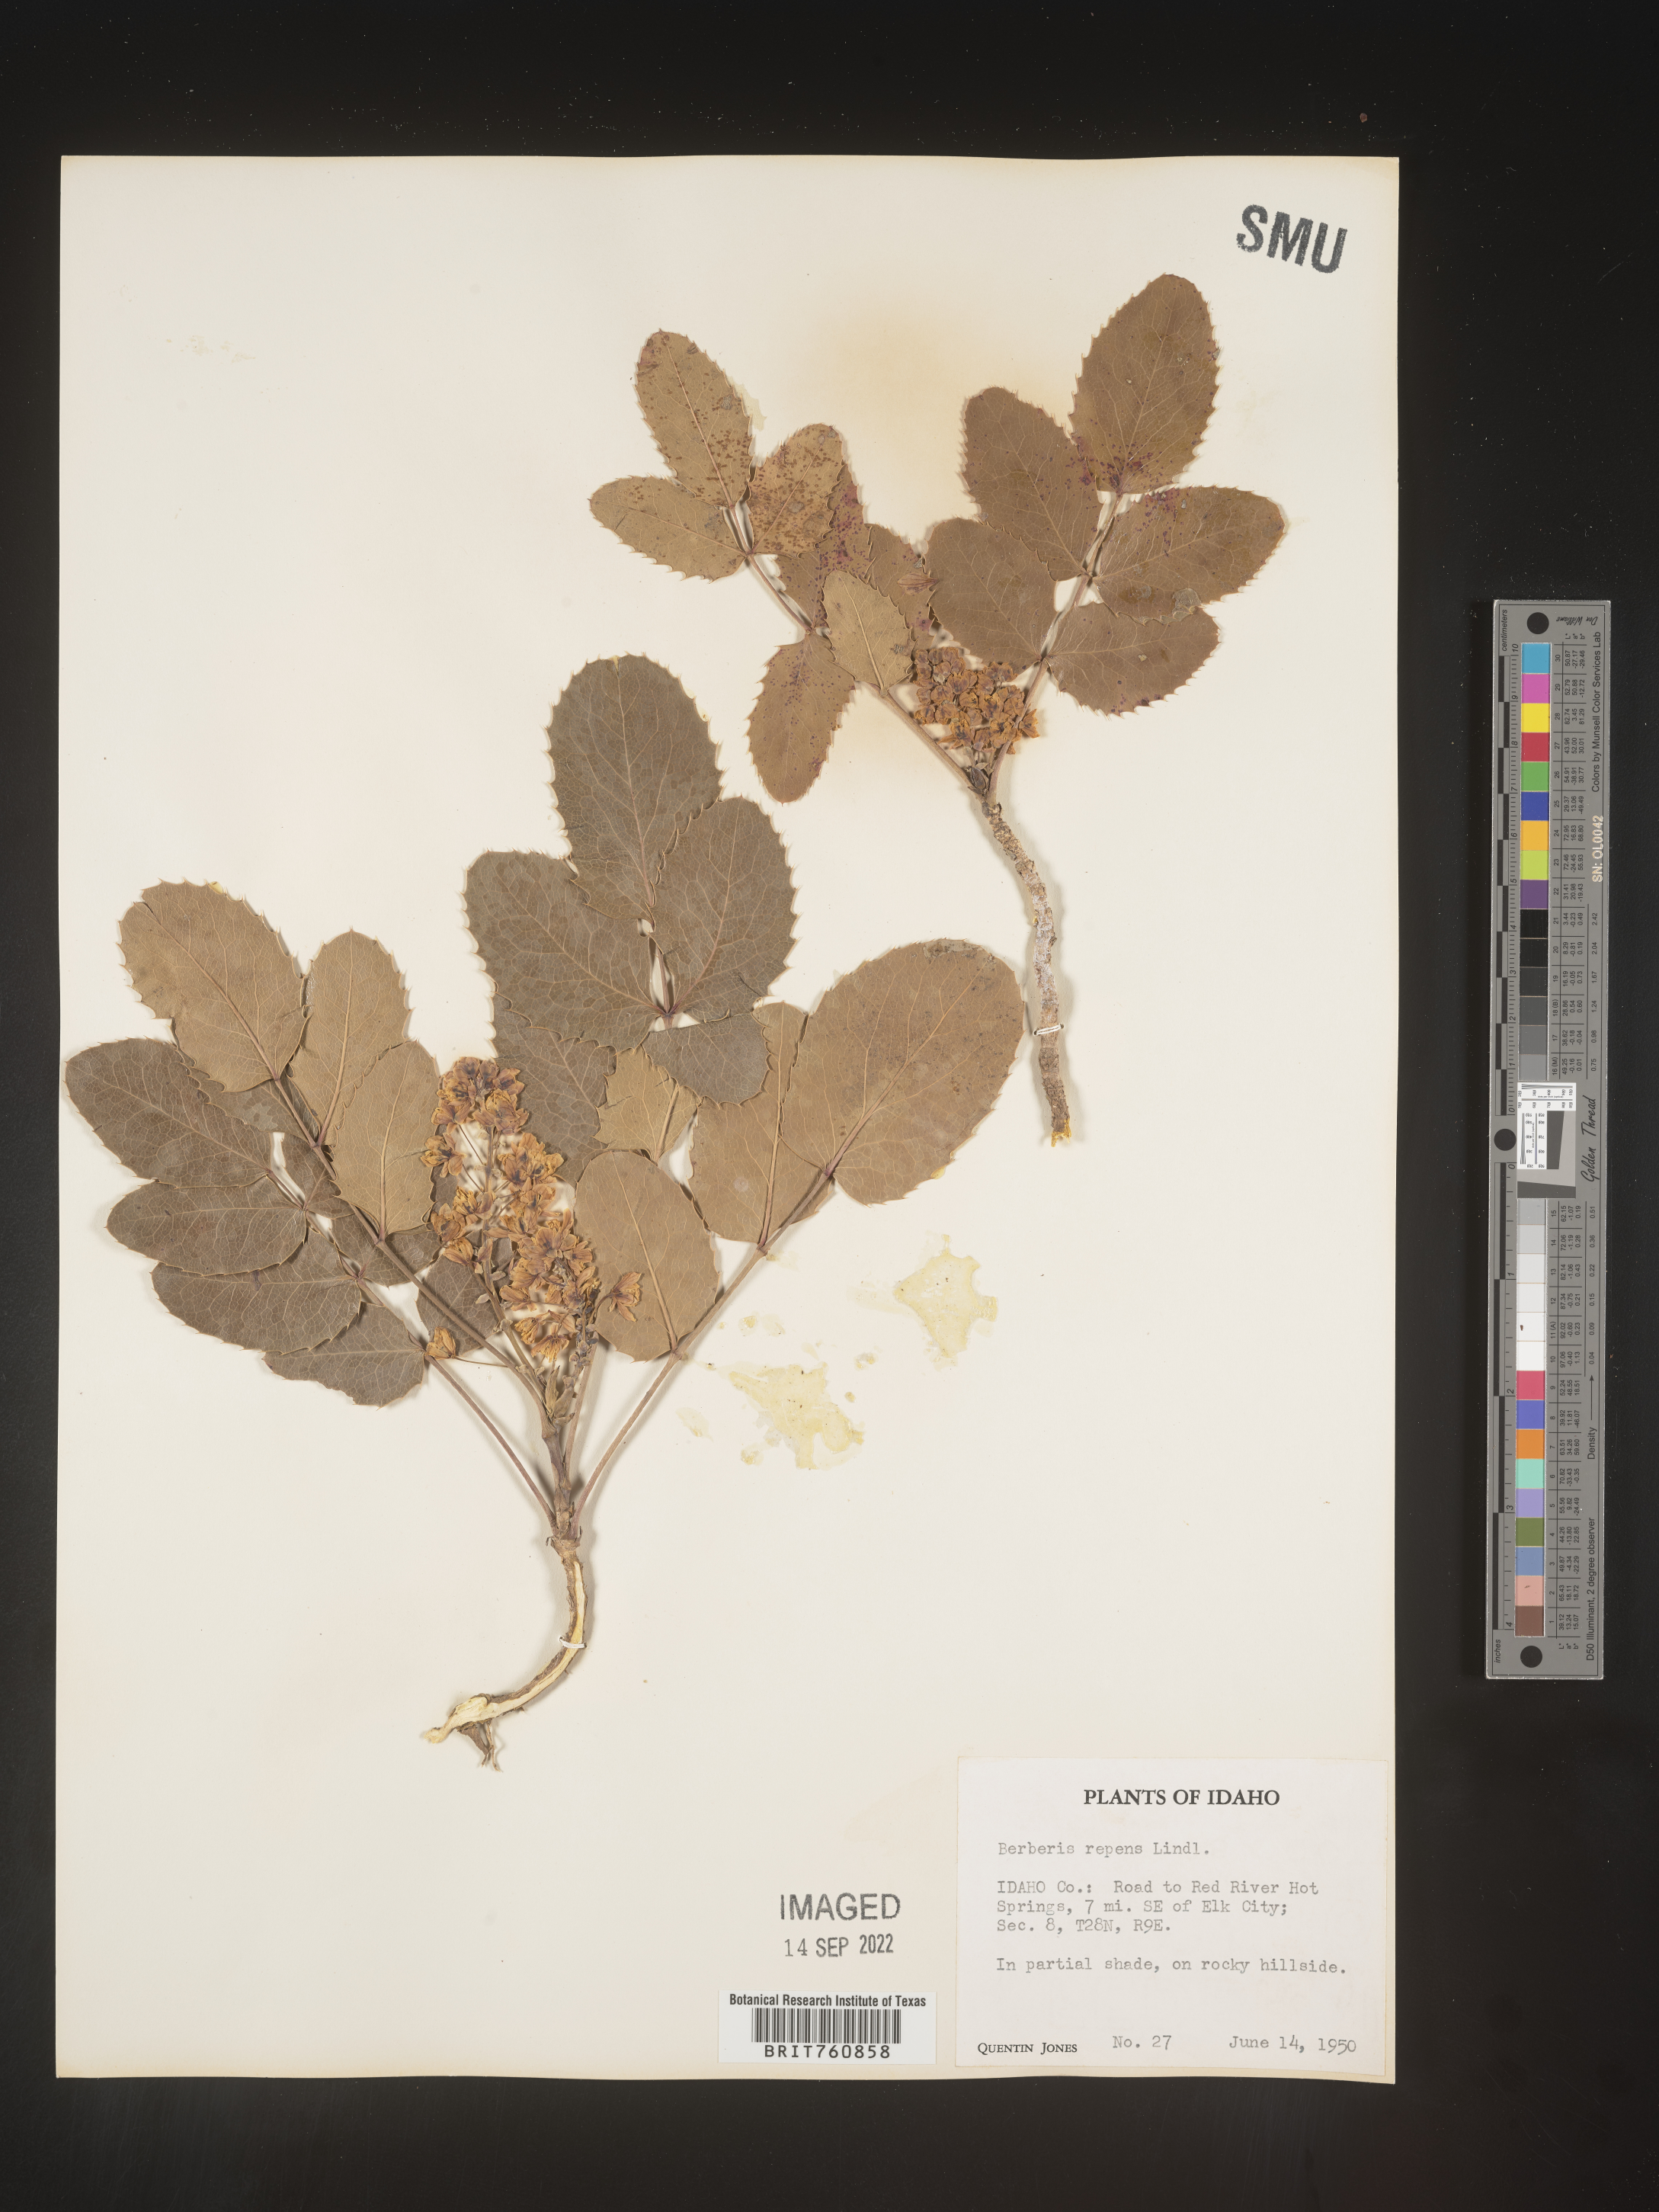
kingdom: Plantae
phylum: Tracheophyta
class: Magnoliopsida
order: Ranunculales
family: Berberidaceae
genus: Mahonia
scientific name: Mahonia repens
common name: Creeping oregon-grape
